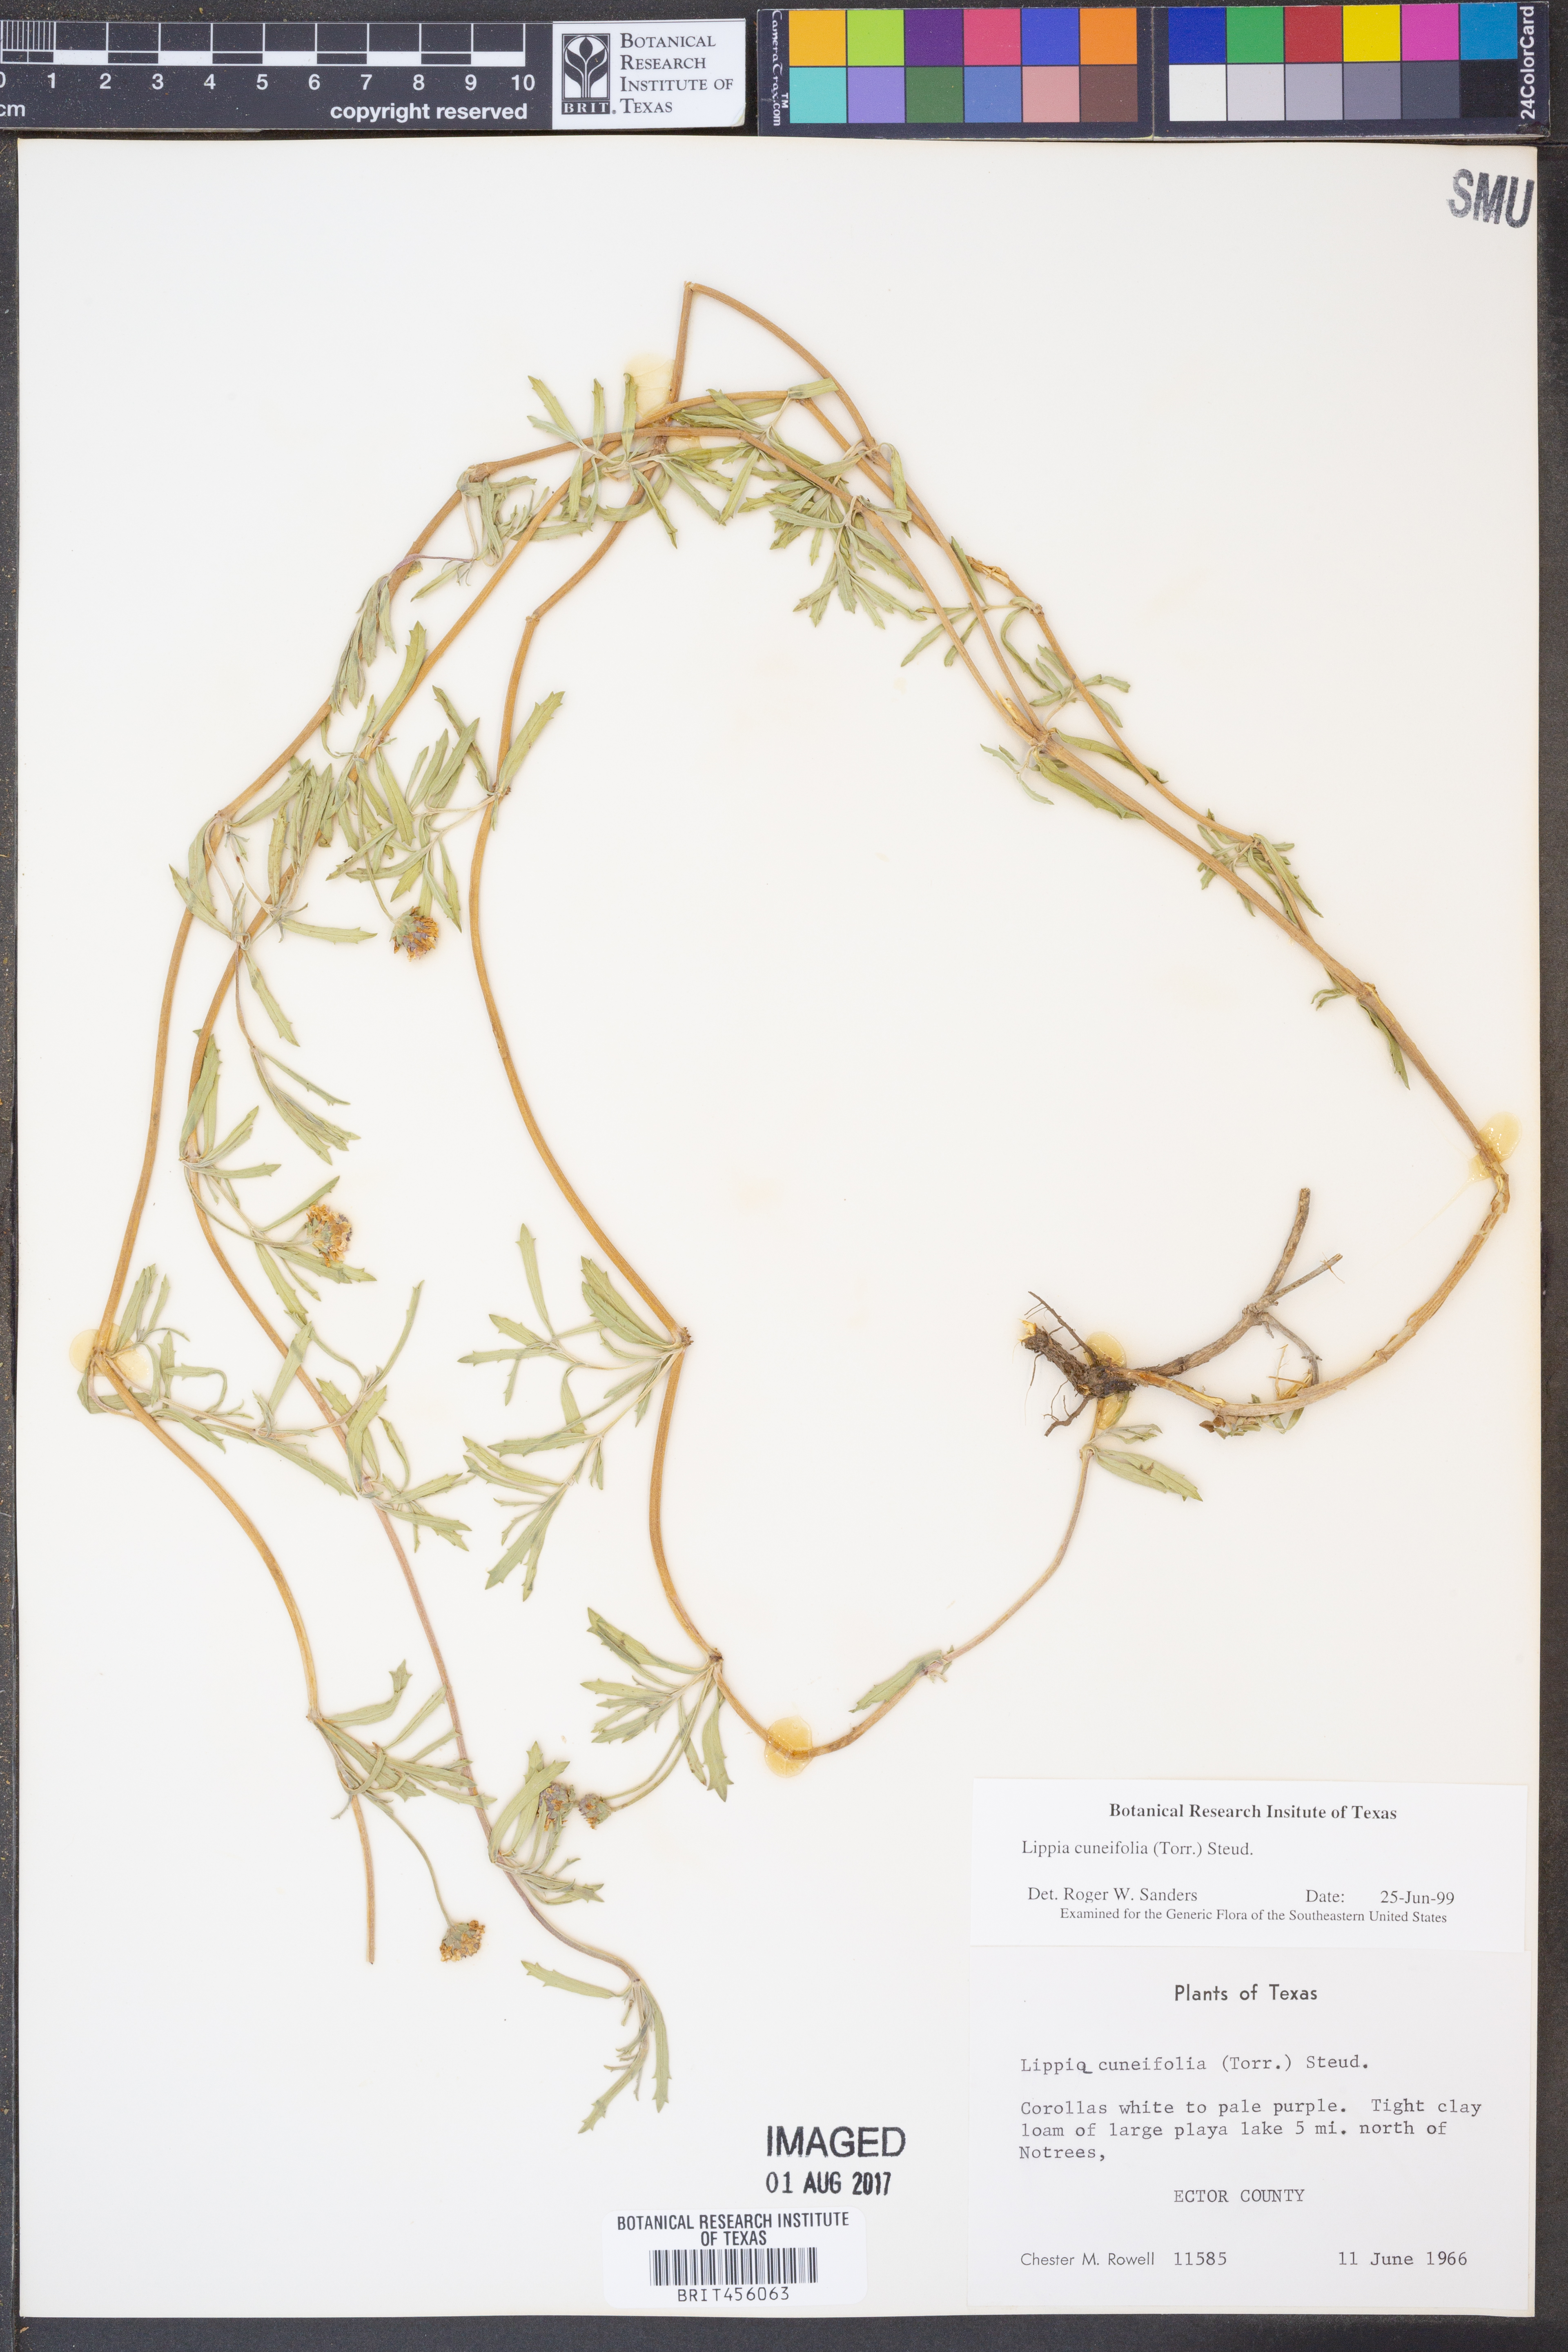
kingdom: Plantae
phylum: Tracheophyta
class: Magnoliopsida
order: Lamiales
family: Verbenaceae
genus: Phyla
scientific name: Phyla cuneifolia
